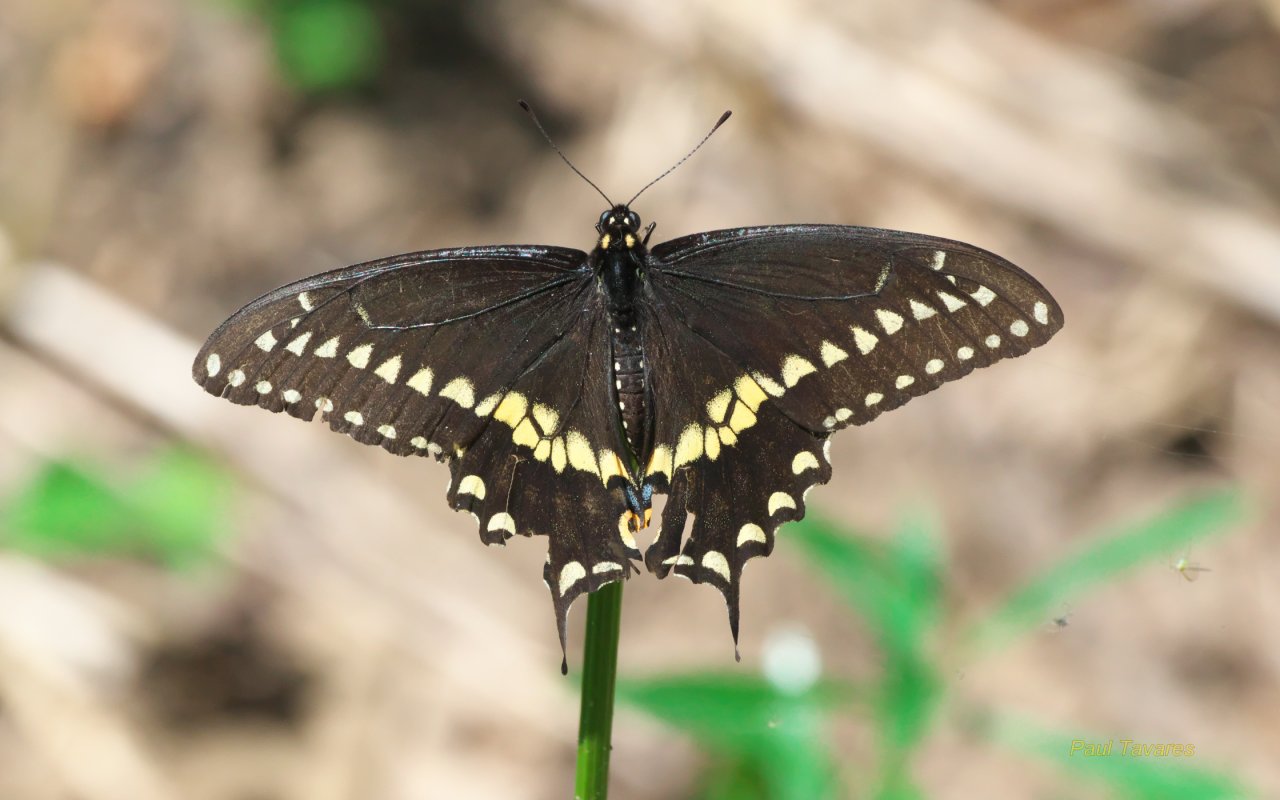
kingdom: Animalia
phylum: Arthropoda
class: Insecta
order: Lepidoptera
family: Papilionidae
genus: Papilio
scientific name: Papilio polyxenes
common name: Black Swallowtail
